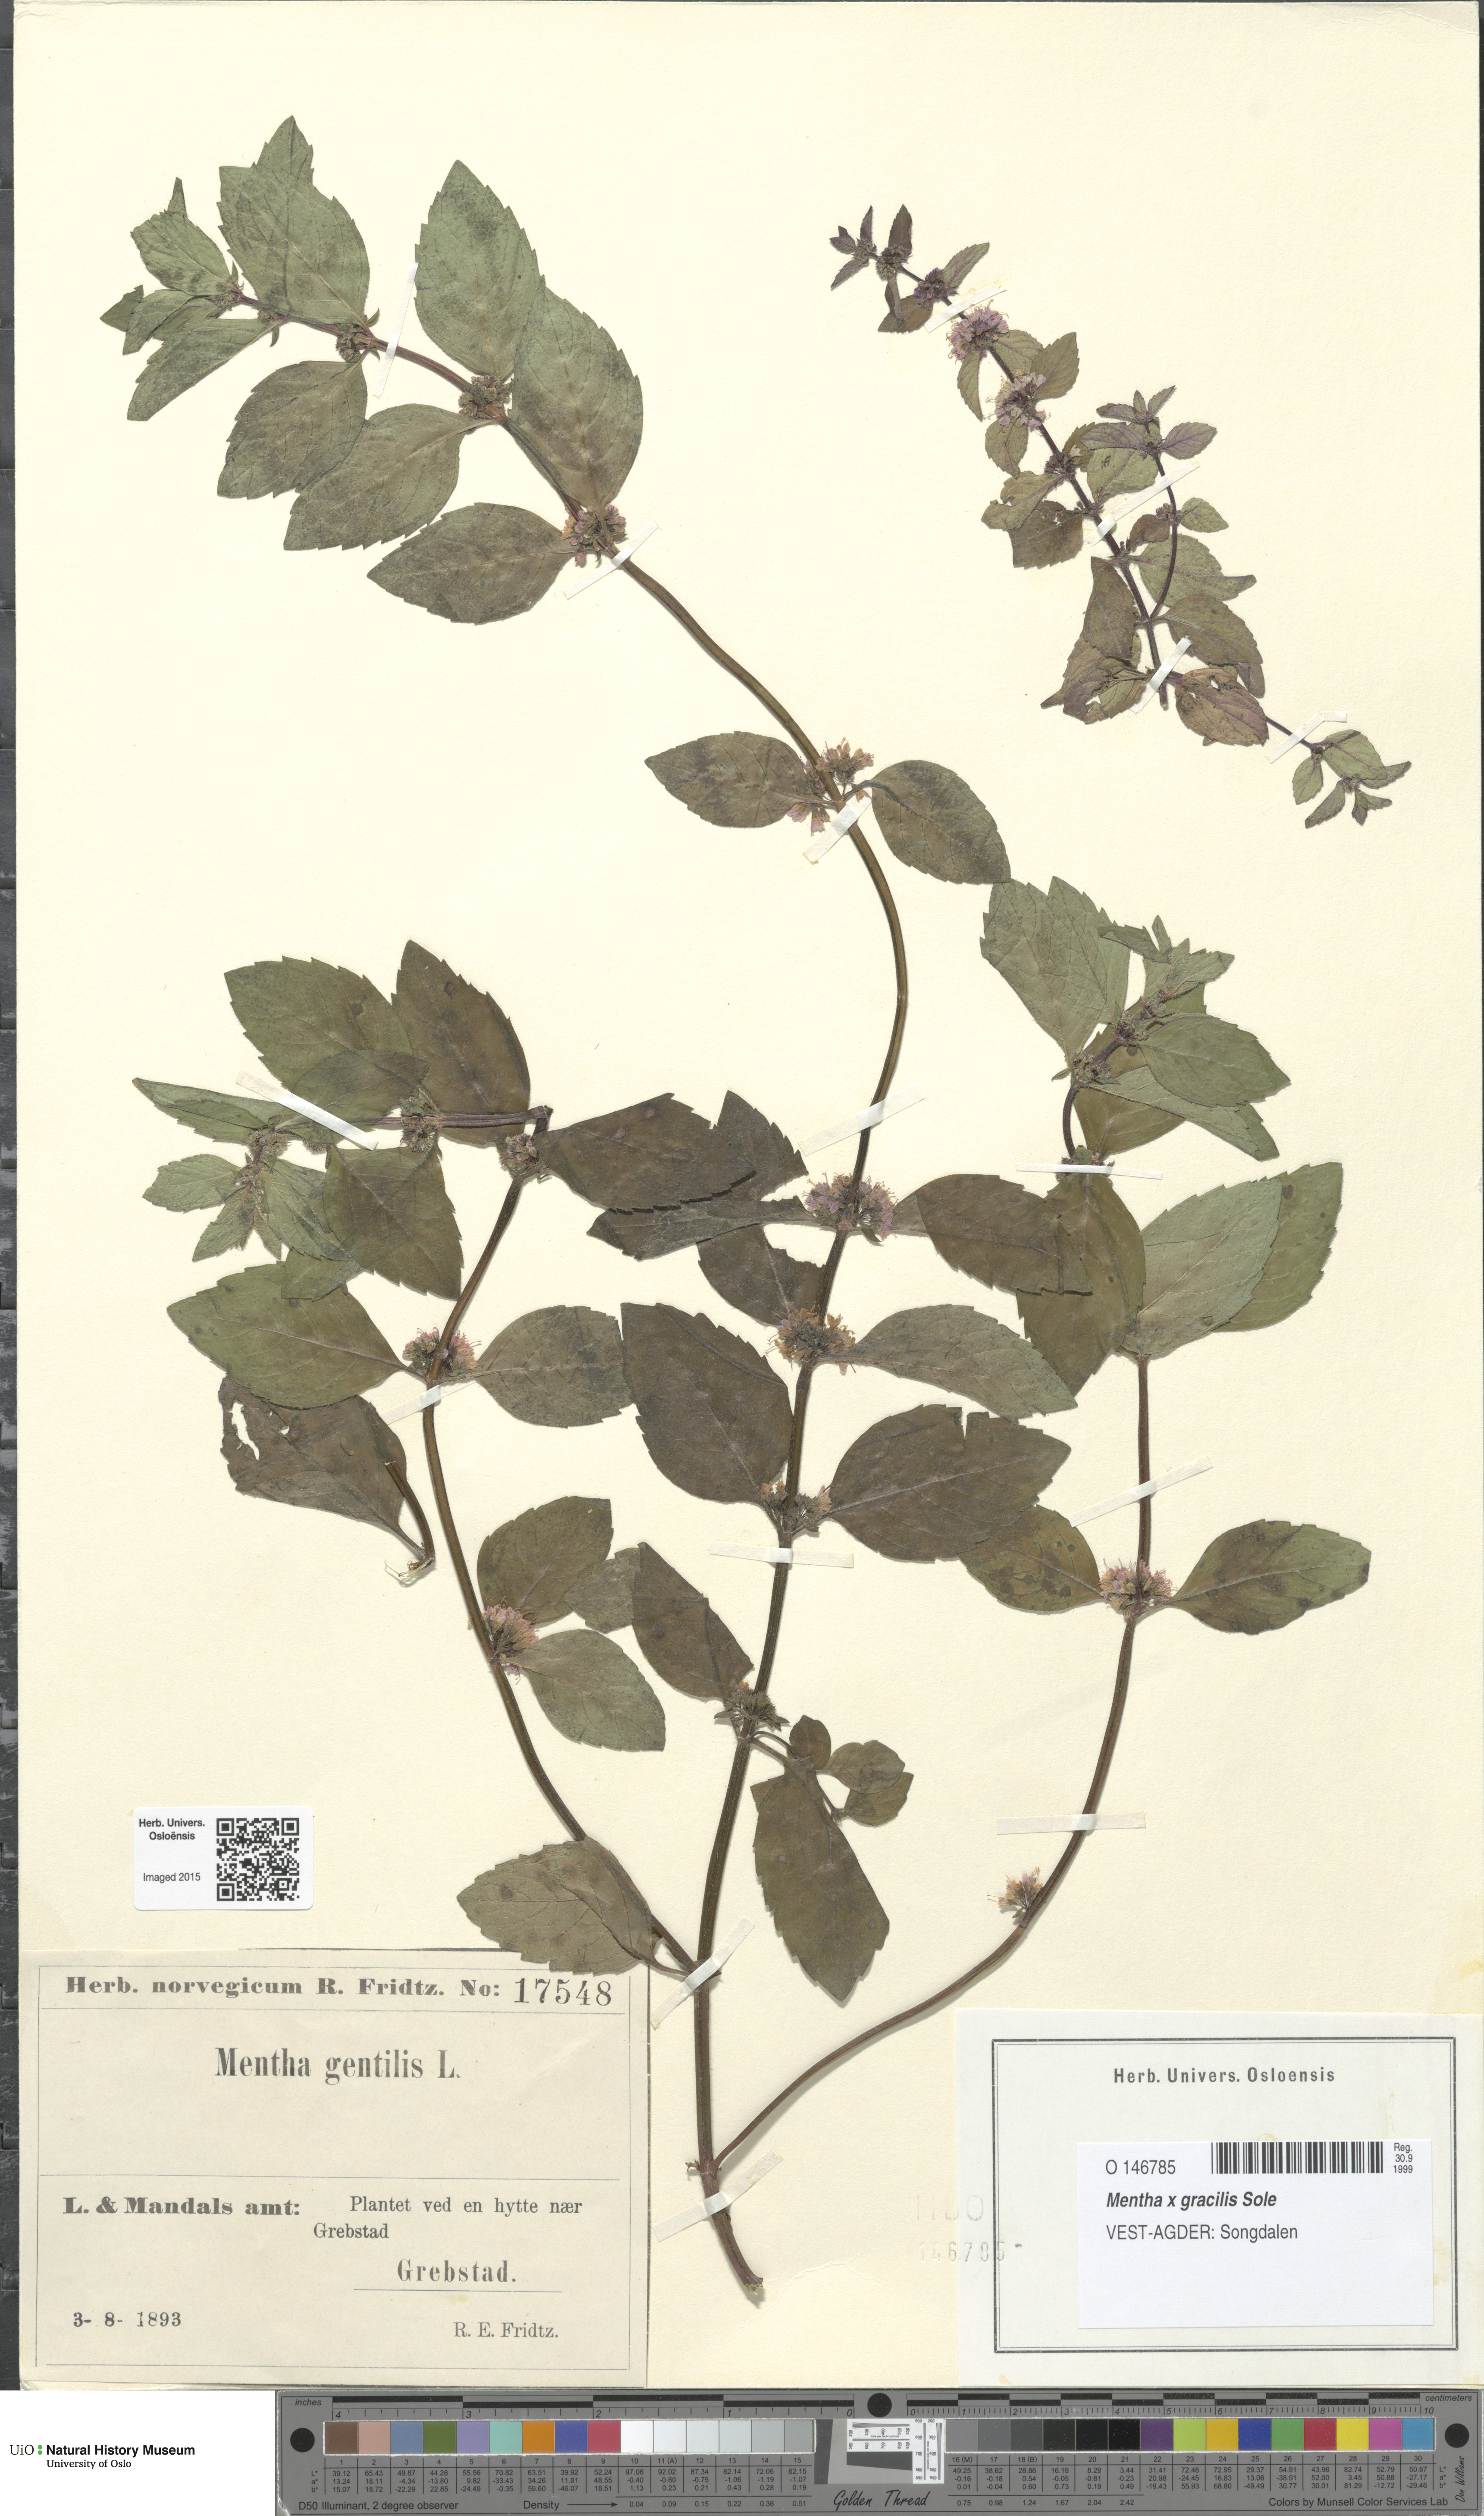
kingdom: Plantae
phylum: Tracheophyta
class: Magnoliopsida
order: Lamiales
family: Lamiaceae
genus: Mentha
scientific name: Mentha arvensis
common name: Corn mint
